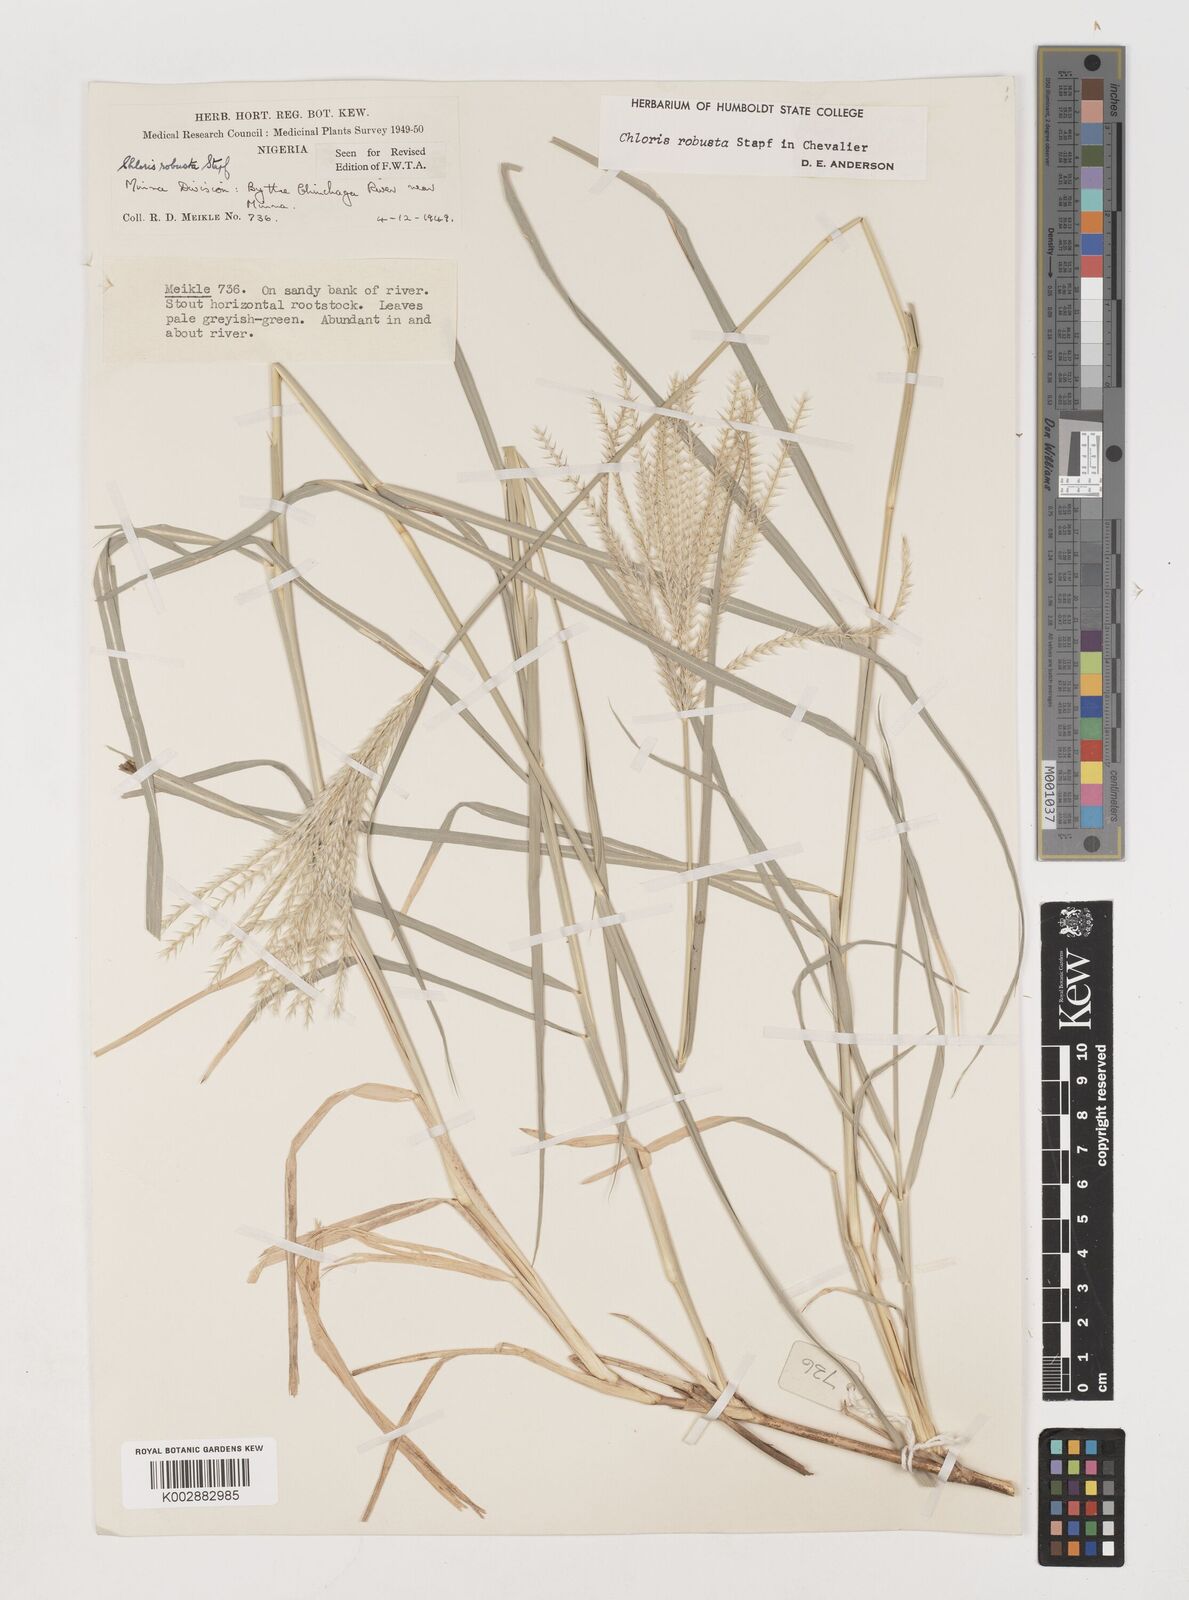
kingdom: Plantae
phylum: Tracheophyta
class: Liliopsida
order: Poales
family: Poaceae
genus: Chloris
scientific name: Chloris robusta
